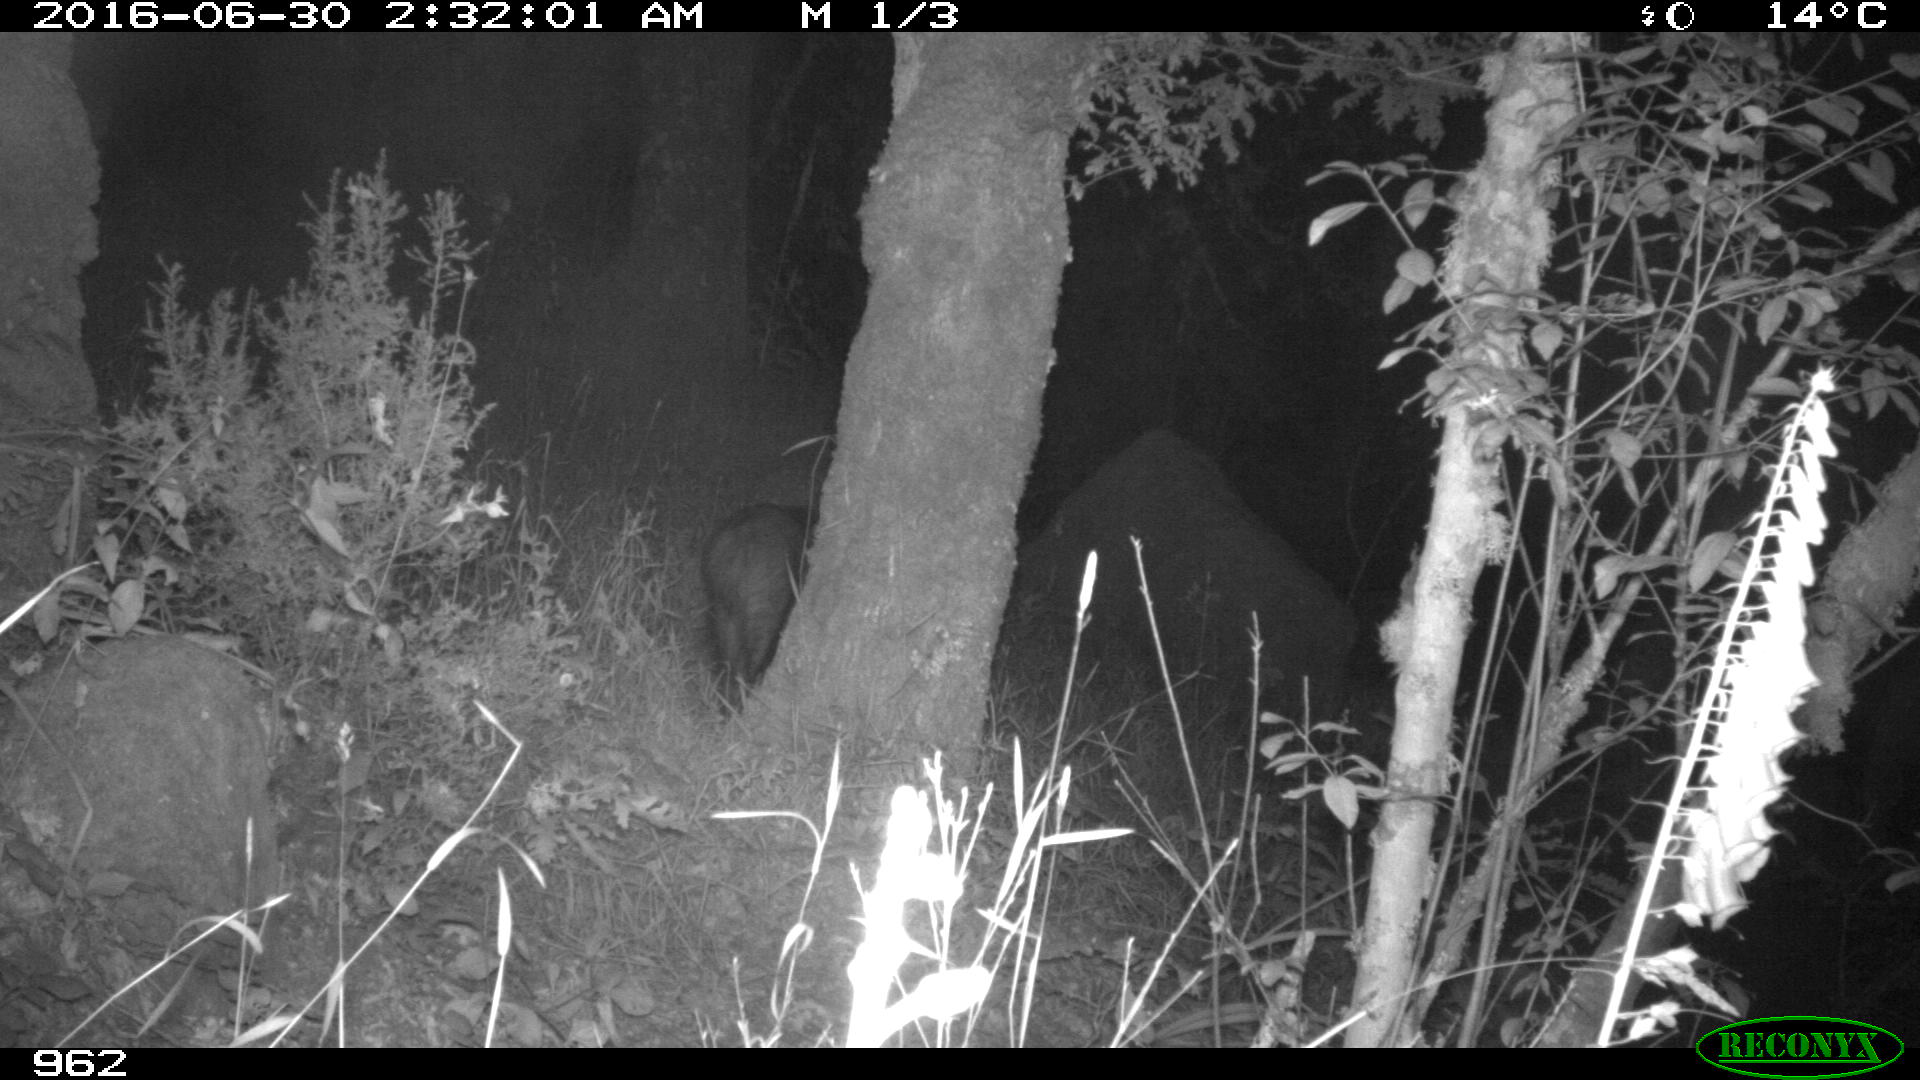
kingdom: Animalia
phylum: Chordata
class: Mammalia
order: Artiodactyla
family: Suidae
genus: Sus
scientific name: Sus scrofa
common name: Wild boar
